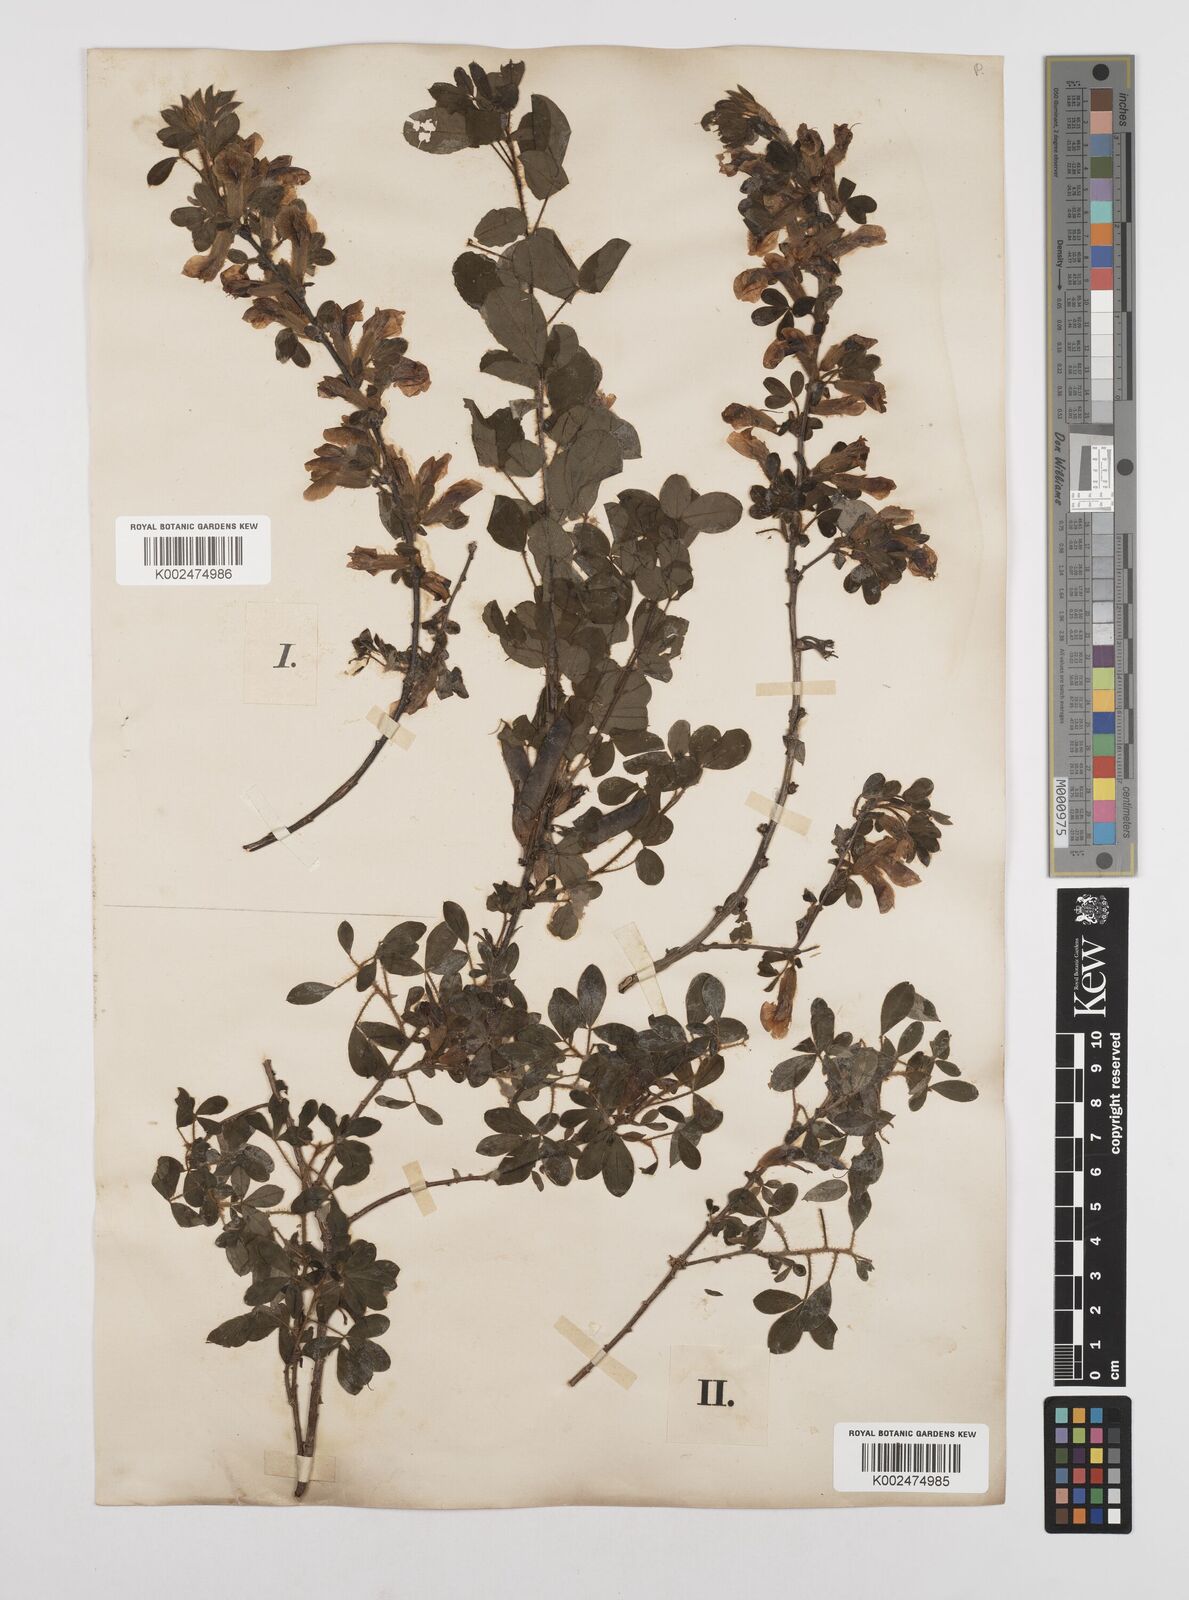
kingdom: Plantae
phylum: Tracheophyta
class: Magnoliopsida
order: Fabales
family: Fabaceae
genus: Chamaecytisus
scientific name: Chamaecytisus hirsutus
